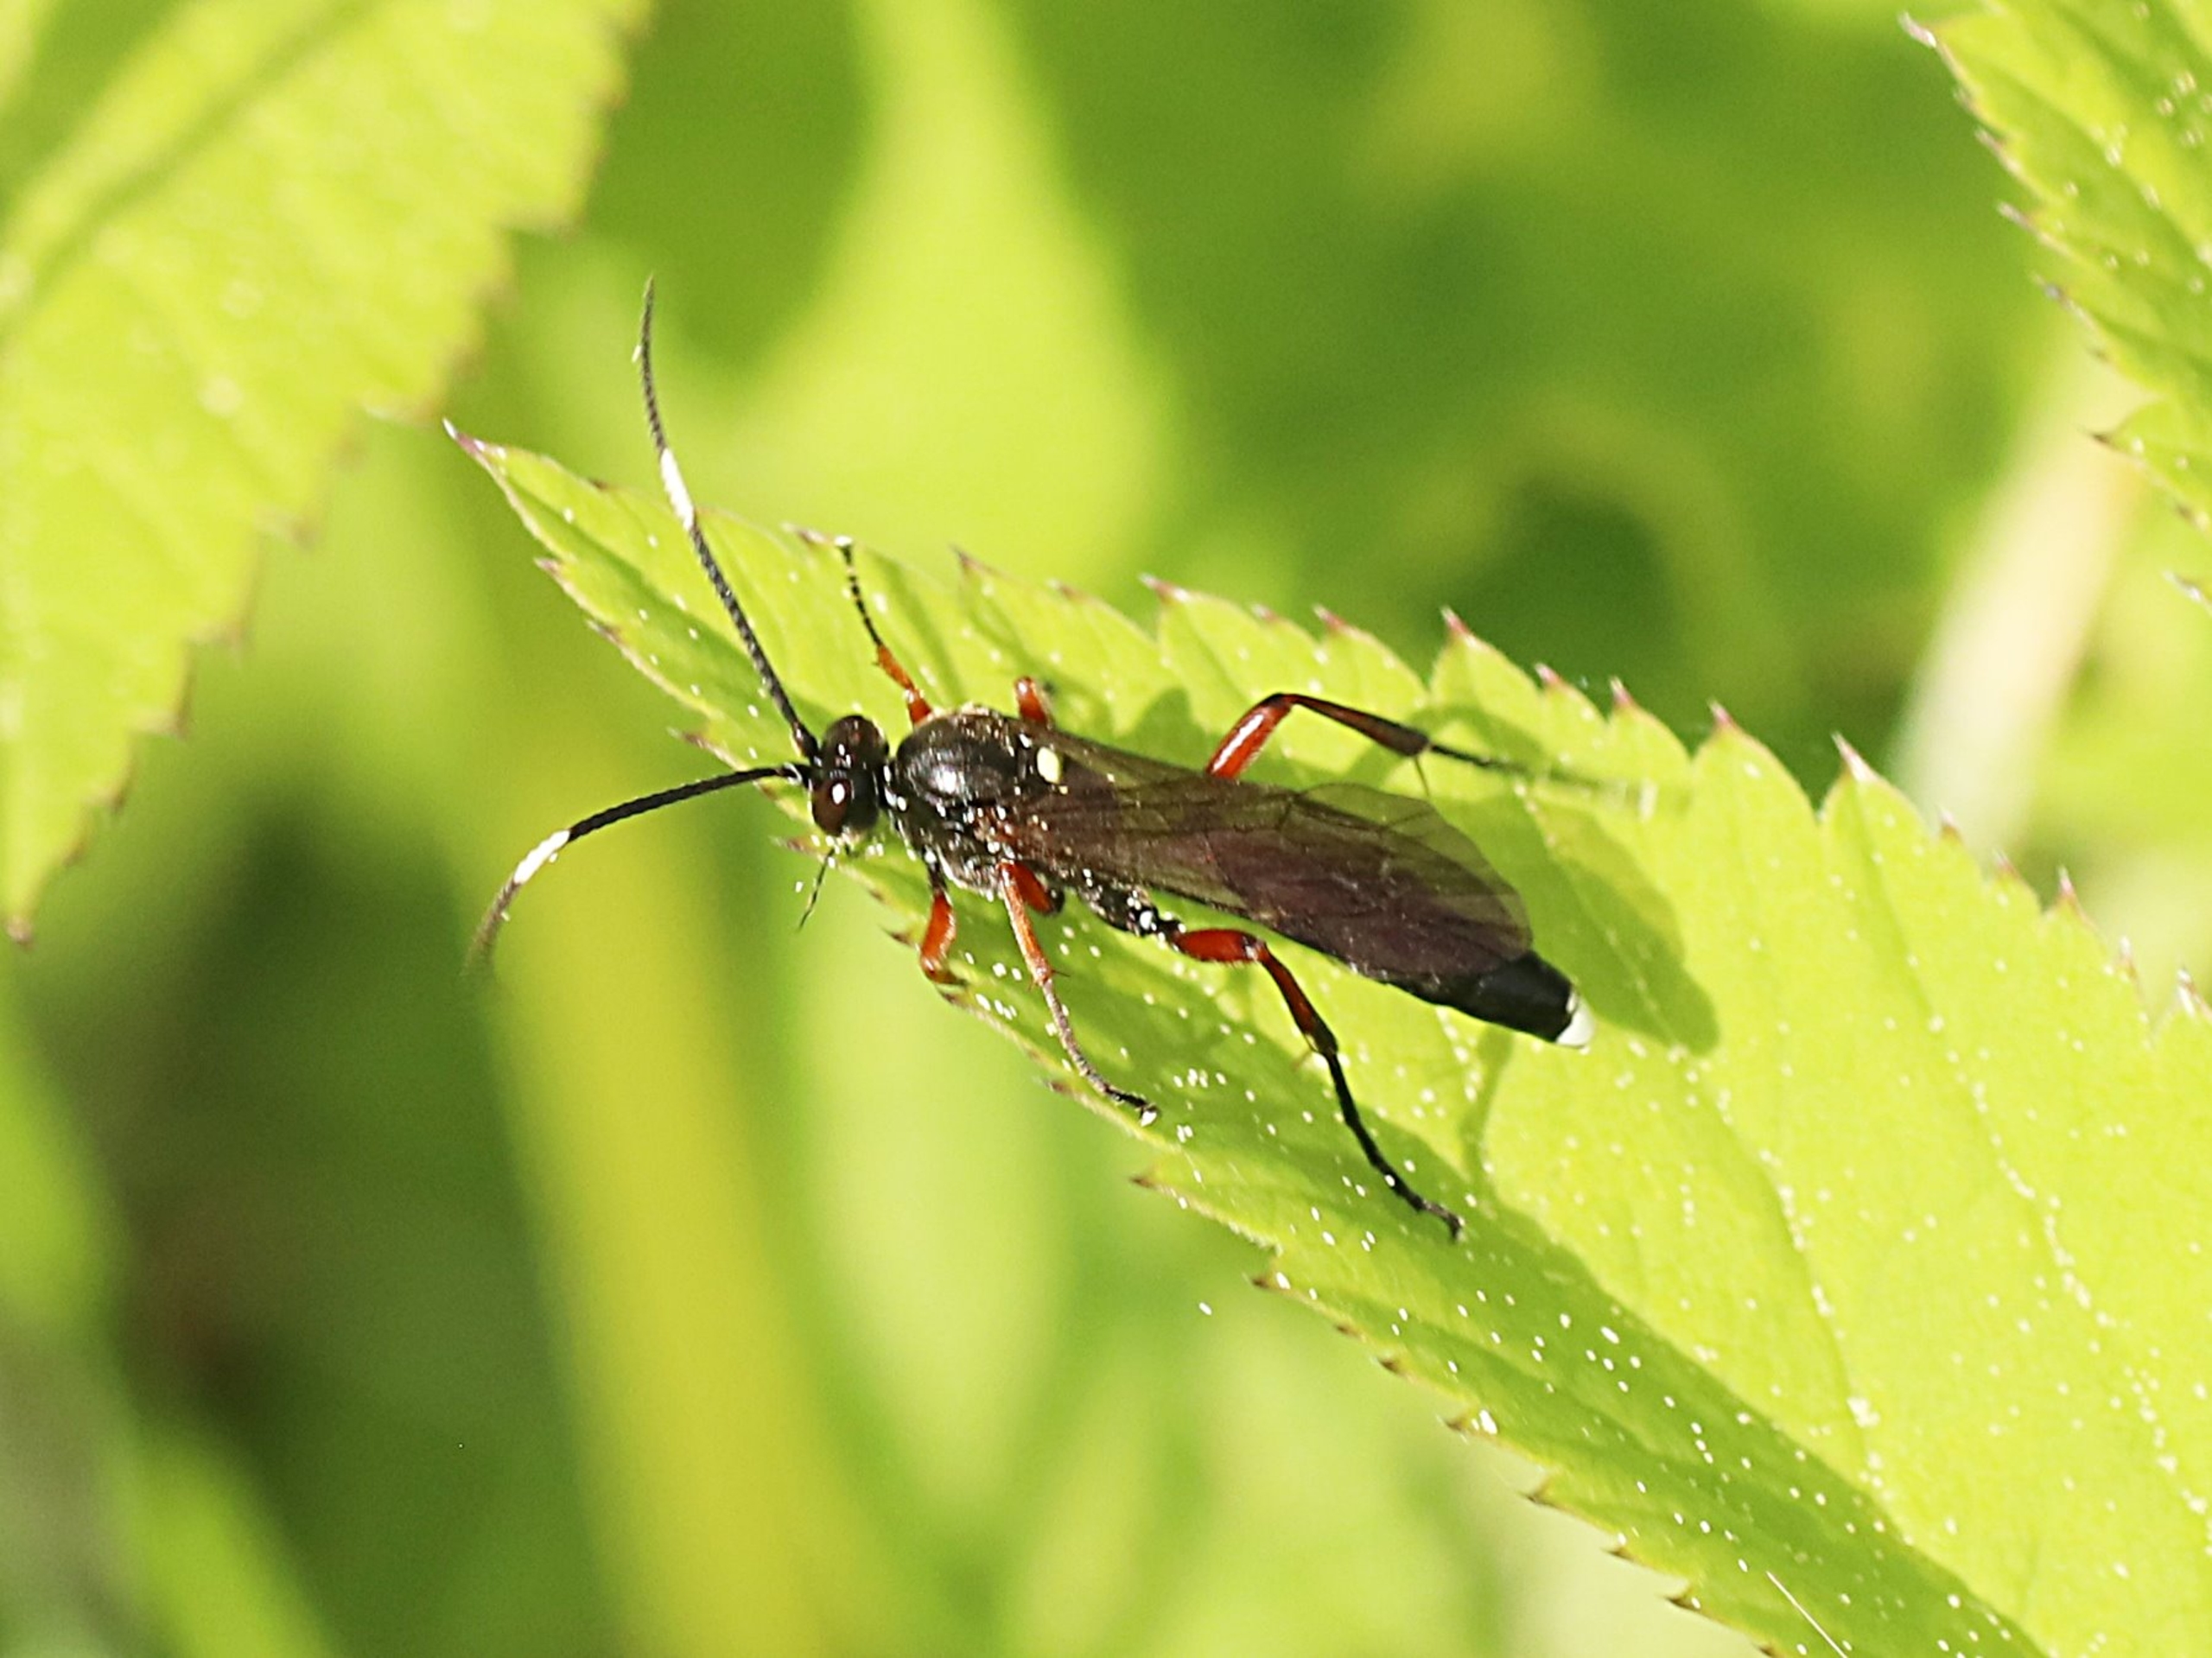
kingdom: Animalia
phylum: Arthropoda
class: Insecta
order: Hymenoptera
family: Ichneumonidae
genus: Vulgichneumon
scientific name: Vulgichneumon saturatorius
